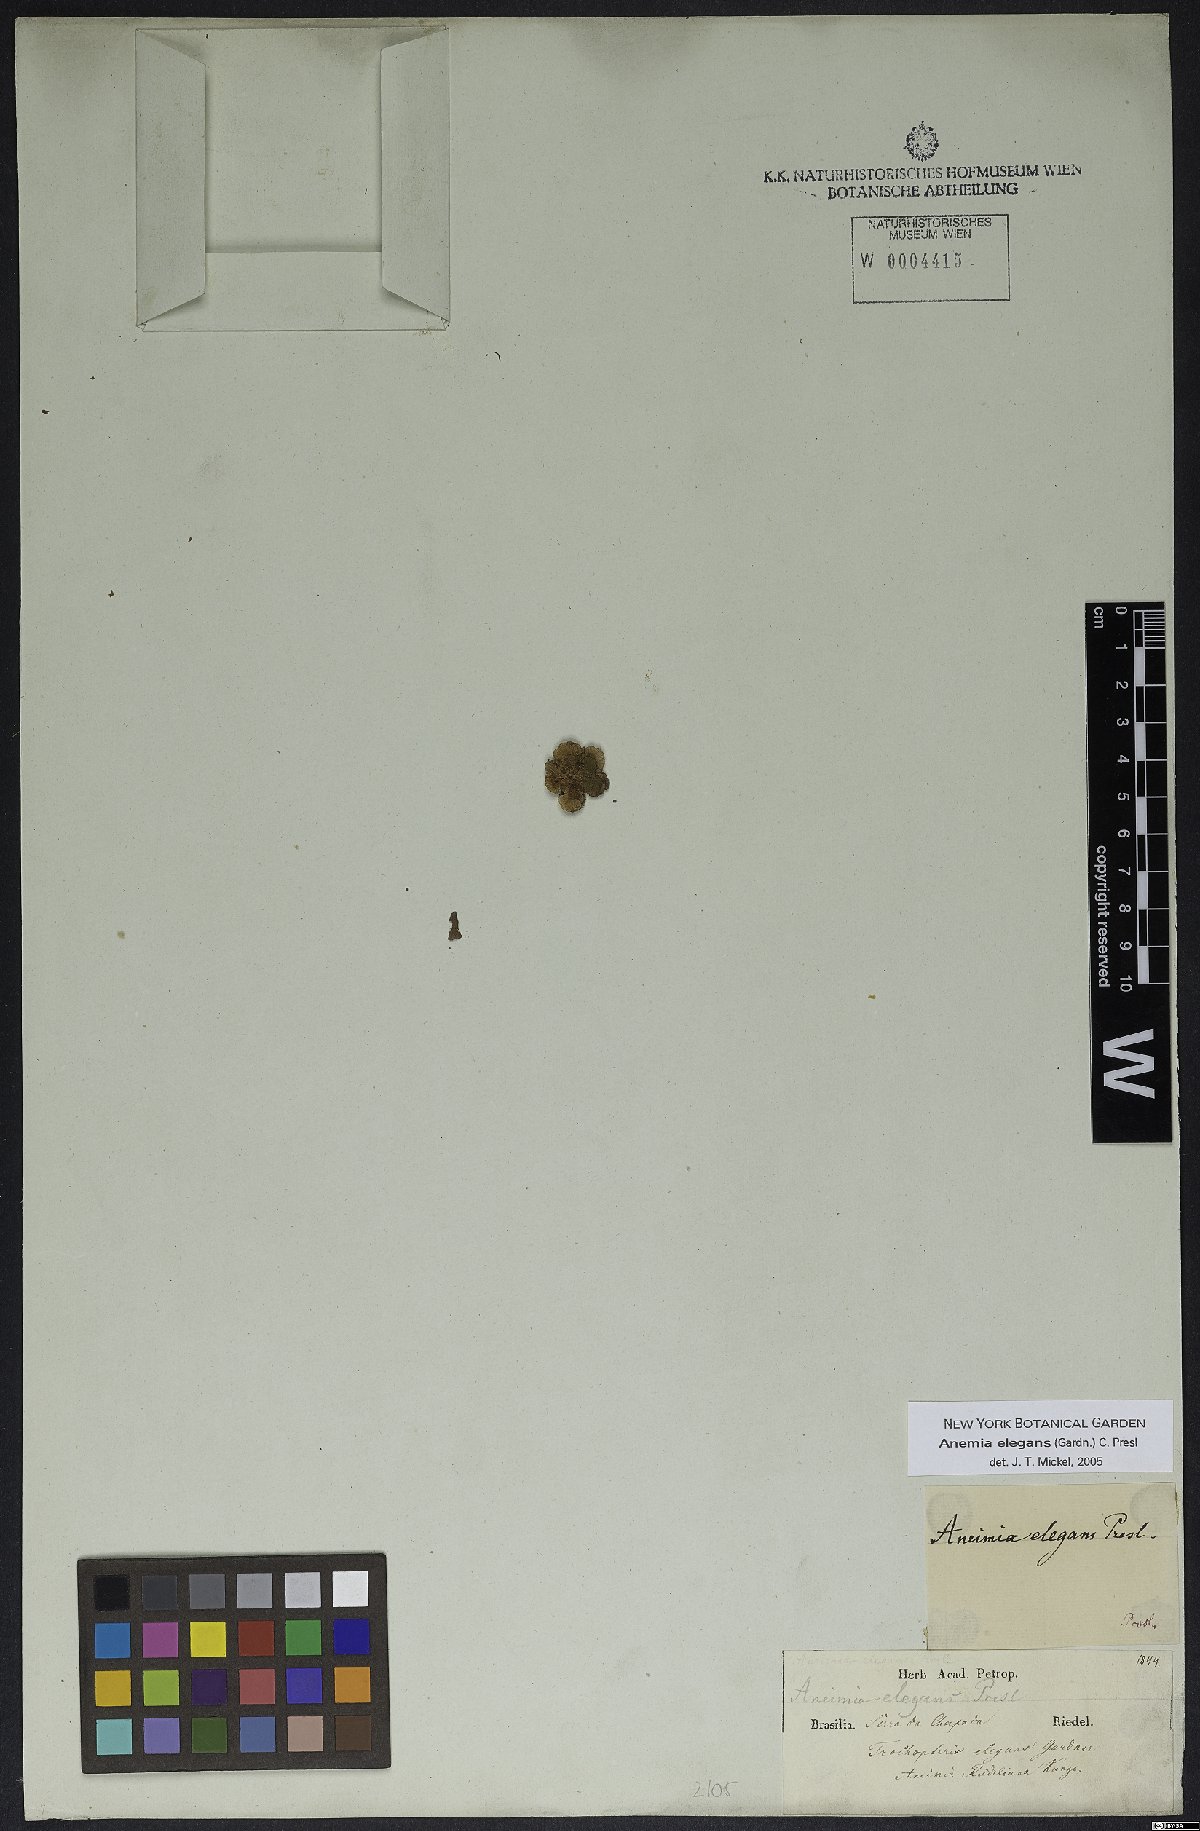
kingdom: Plantae
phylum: Tracheophyta
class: Polypodiopsida
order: Schizaeales
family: Anemiaceae
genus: Anemia
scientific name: Anemia elegans
